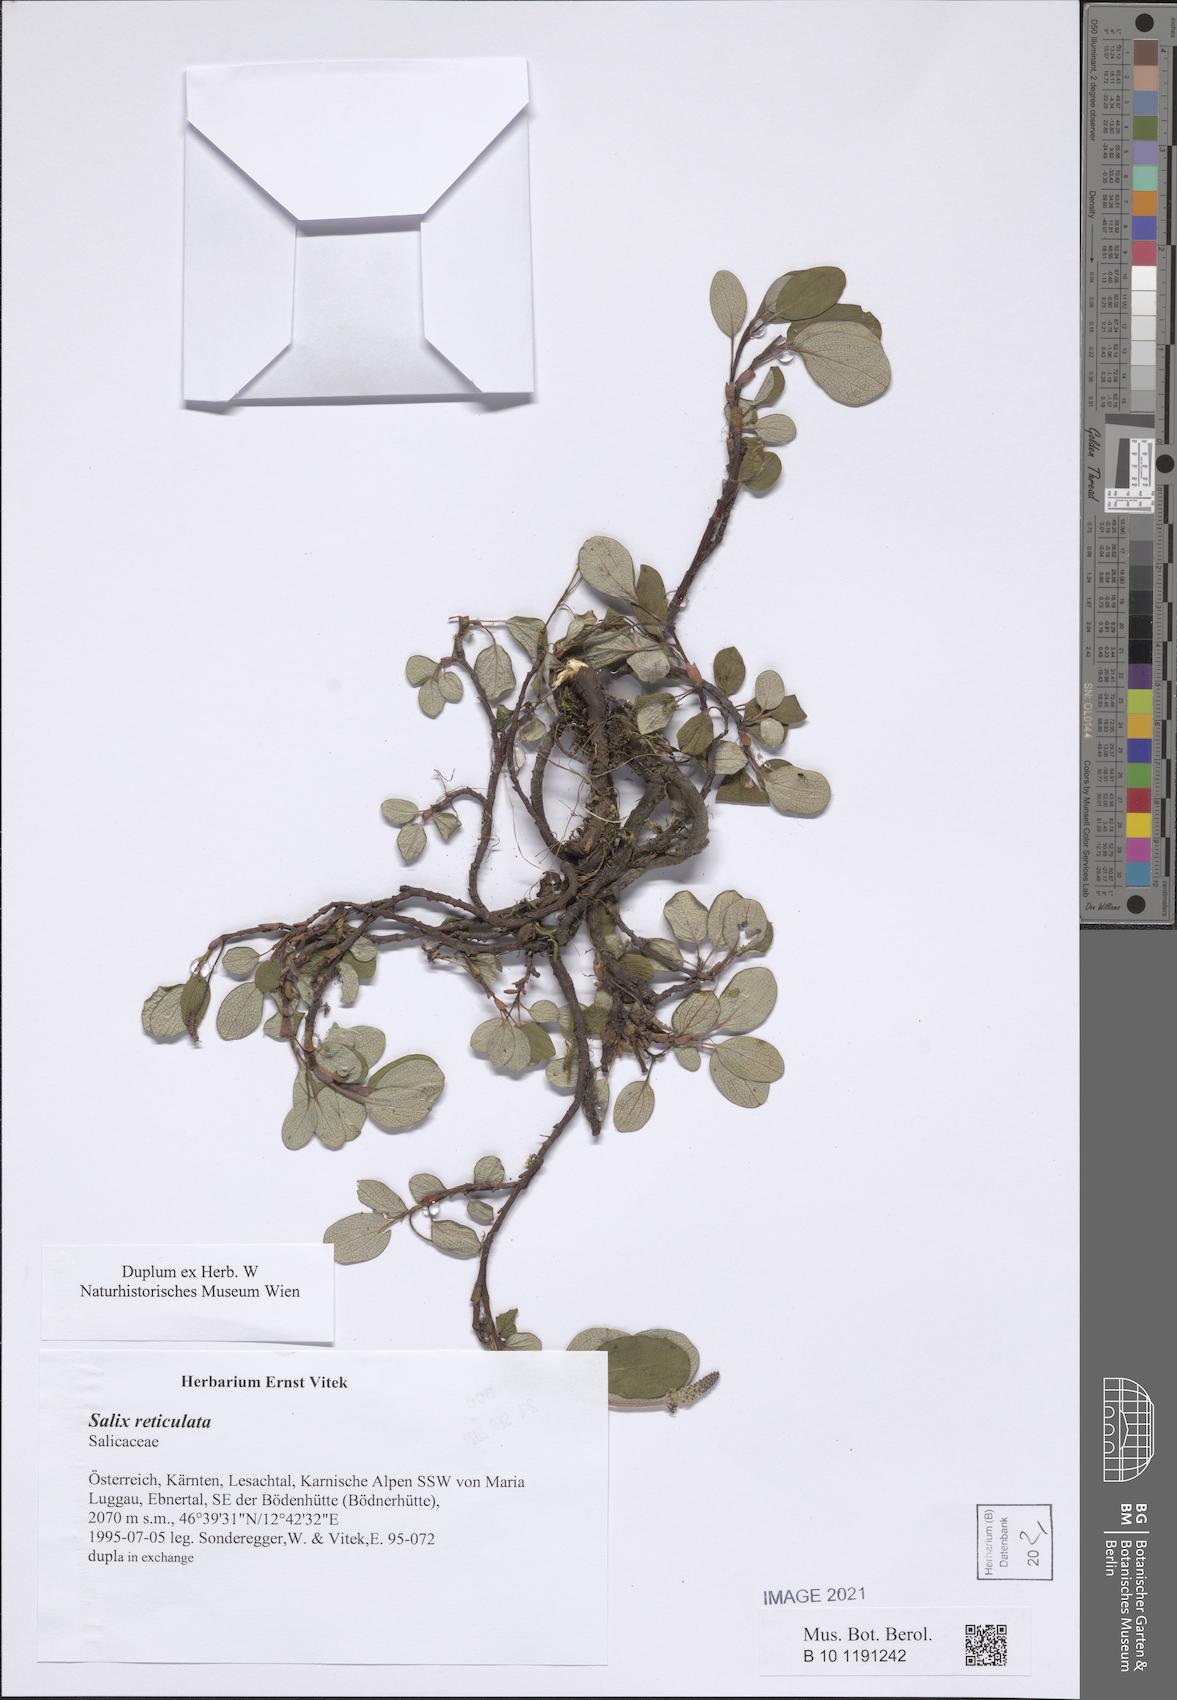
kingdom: Plantae
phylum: Tracheophyta
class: Magnoliopsida
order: Malpighiales
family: Salicaceae
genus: Salix
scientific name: Salix reticulata
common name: Net-leaved willow
